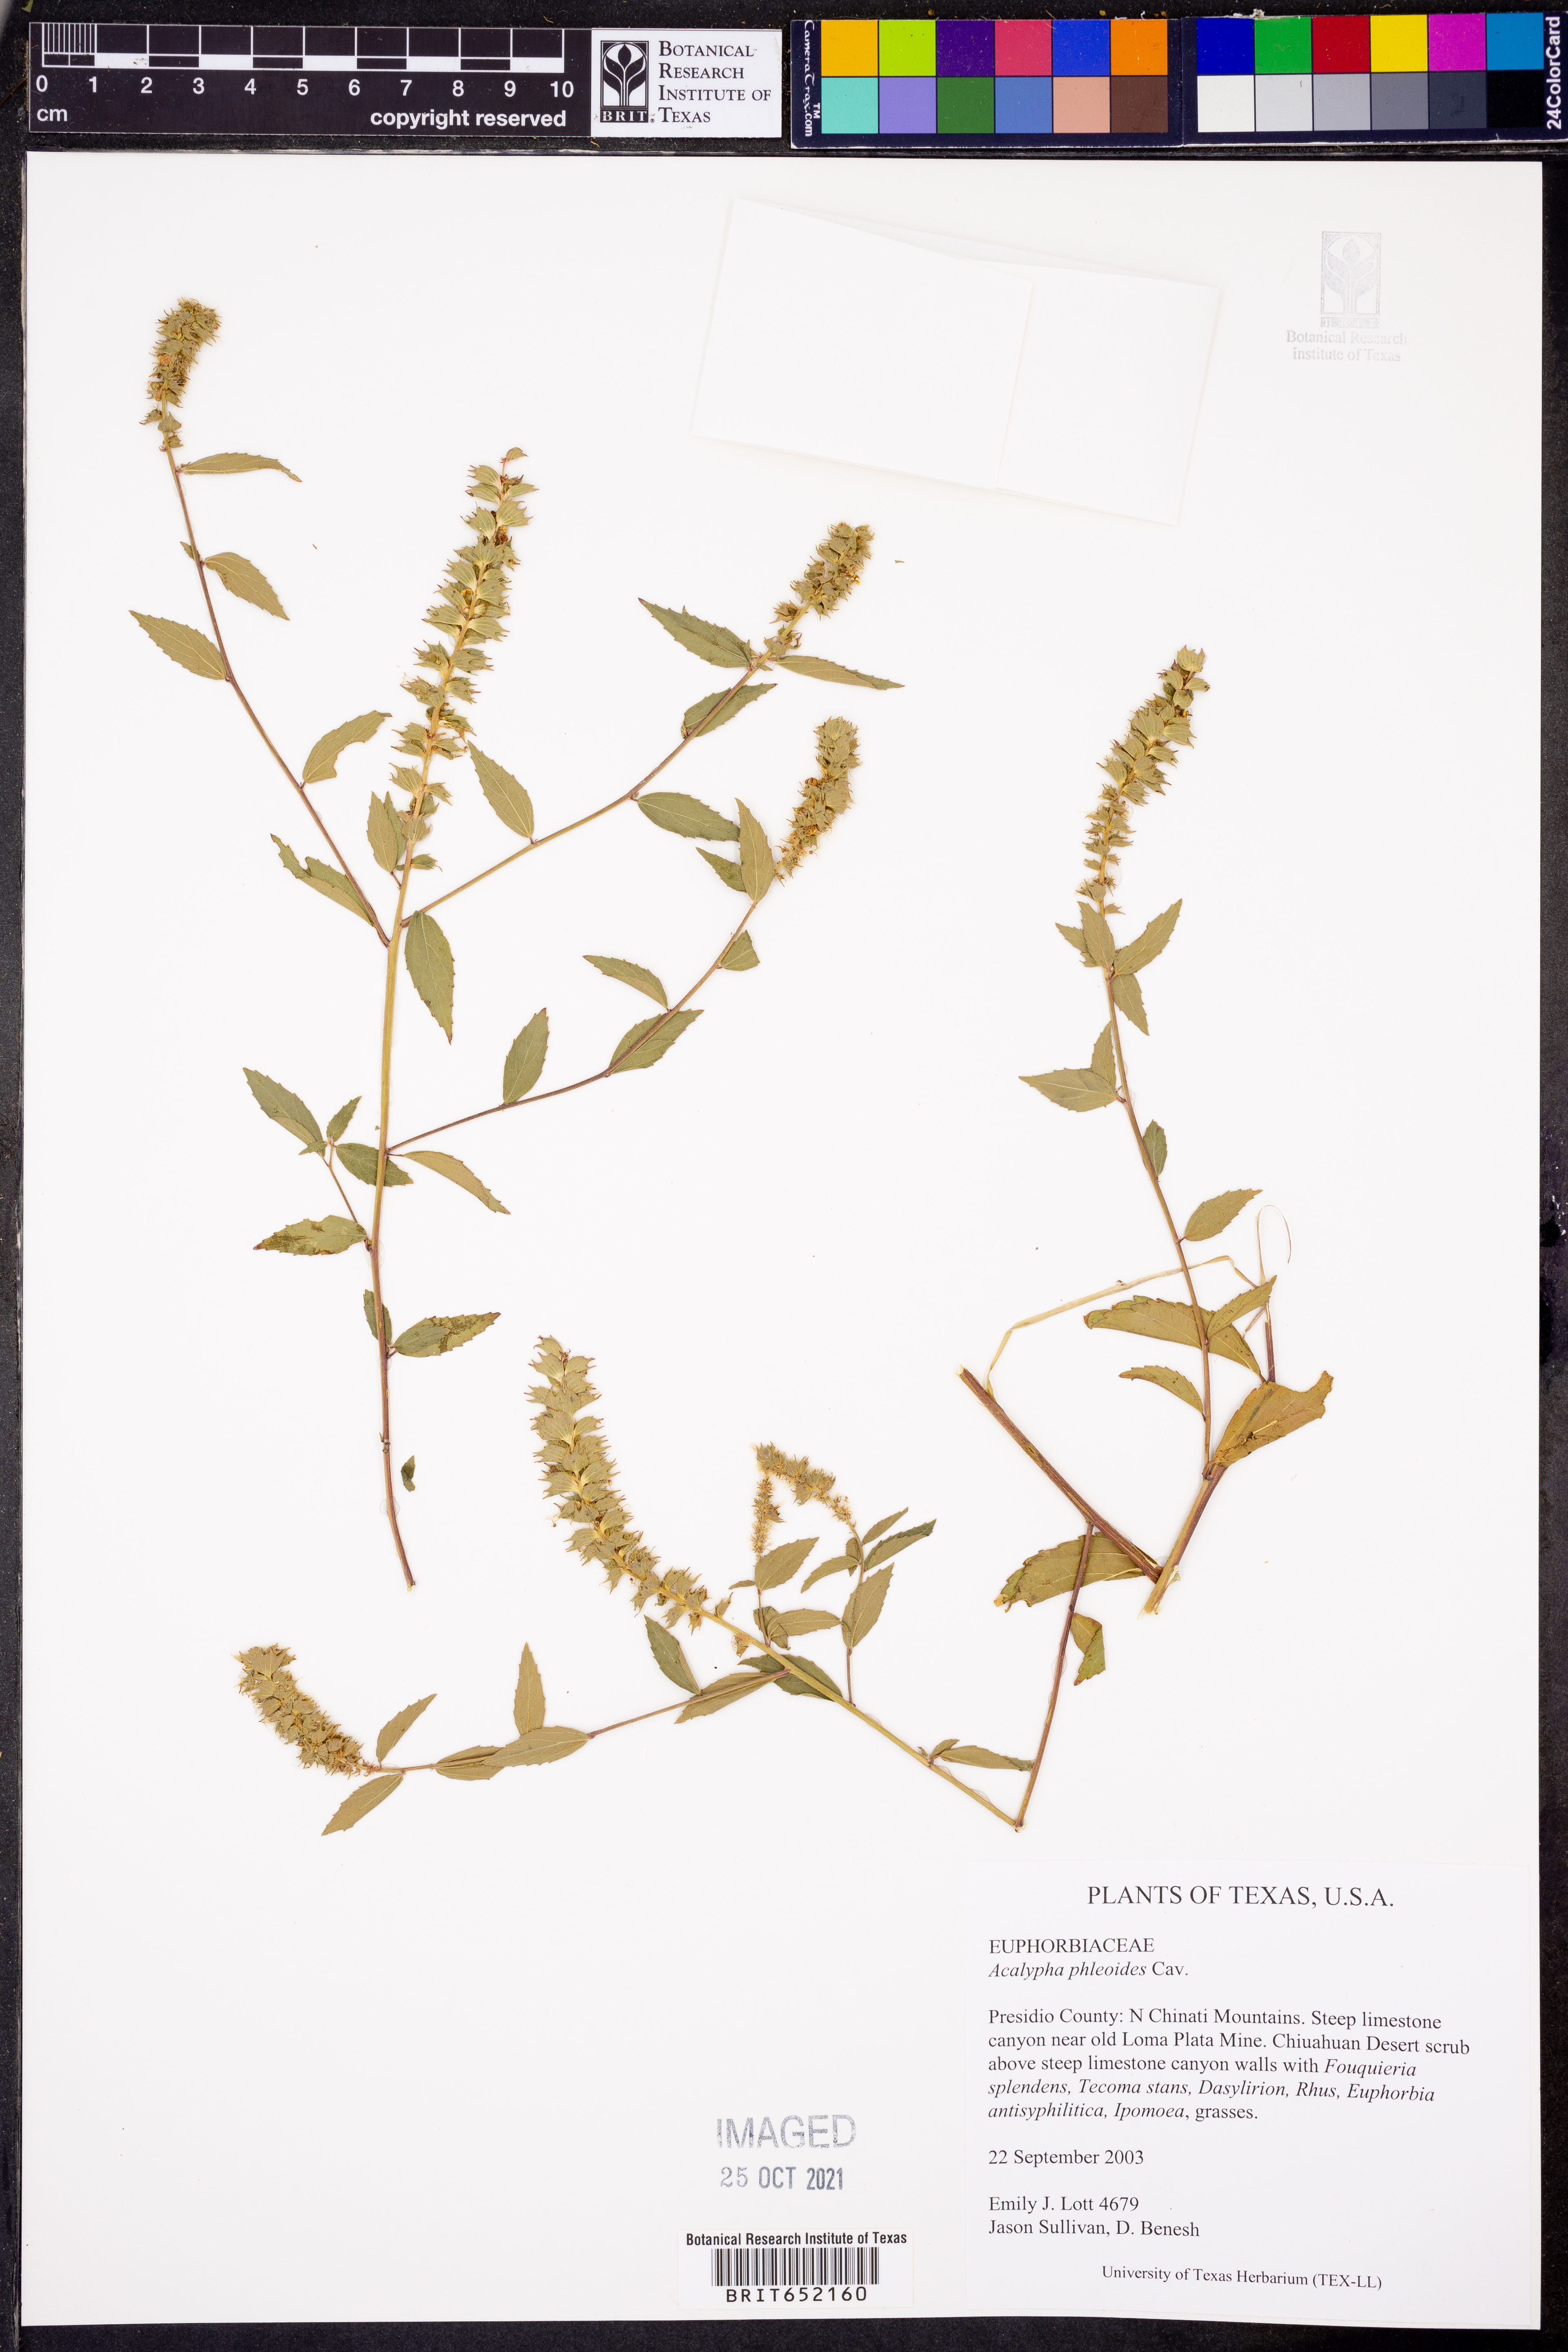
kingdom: Plantae
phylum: Tracheophyta
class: Magnoliopsida
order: Malpighiales
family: Euphorbiaceae
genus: Acalypha
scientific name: Acalypha phleoides
